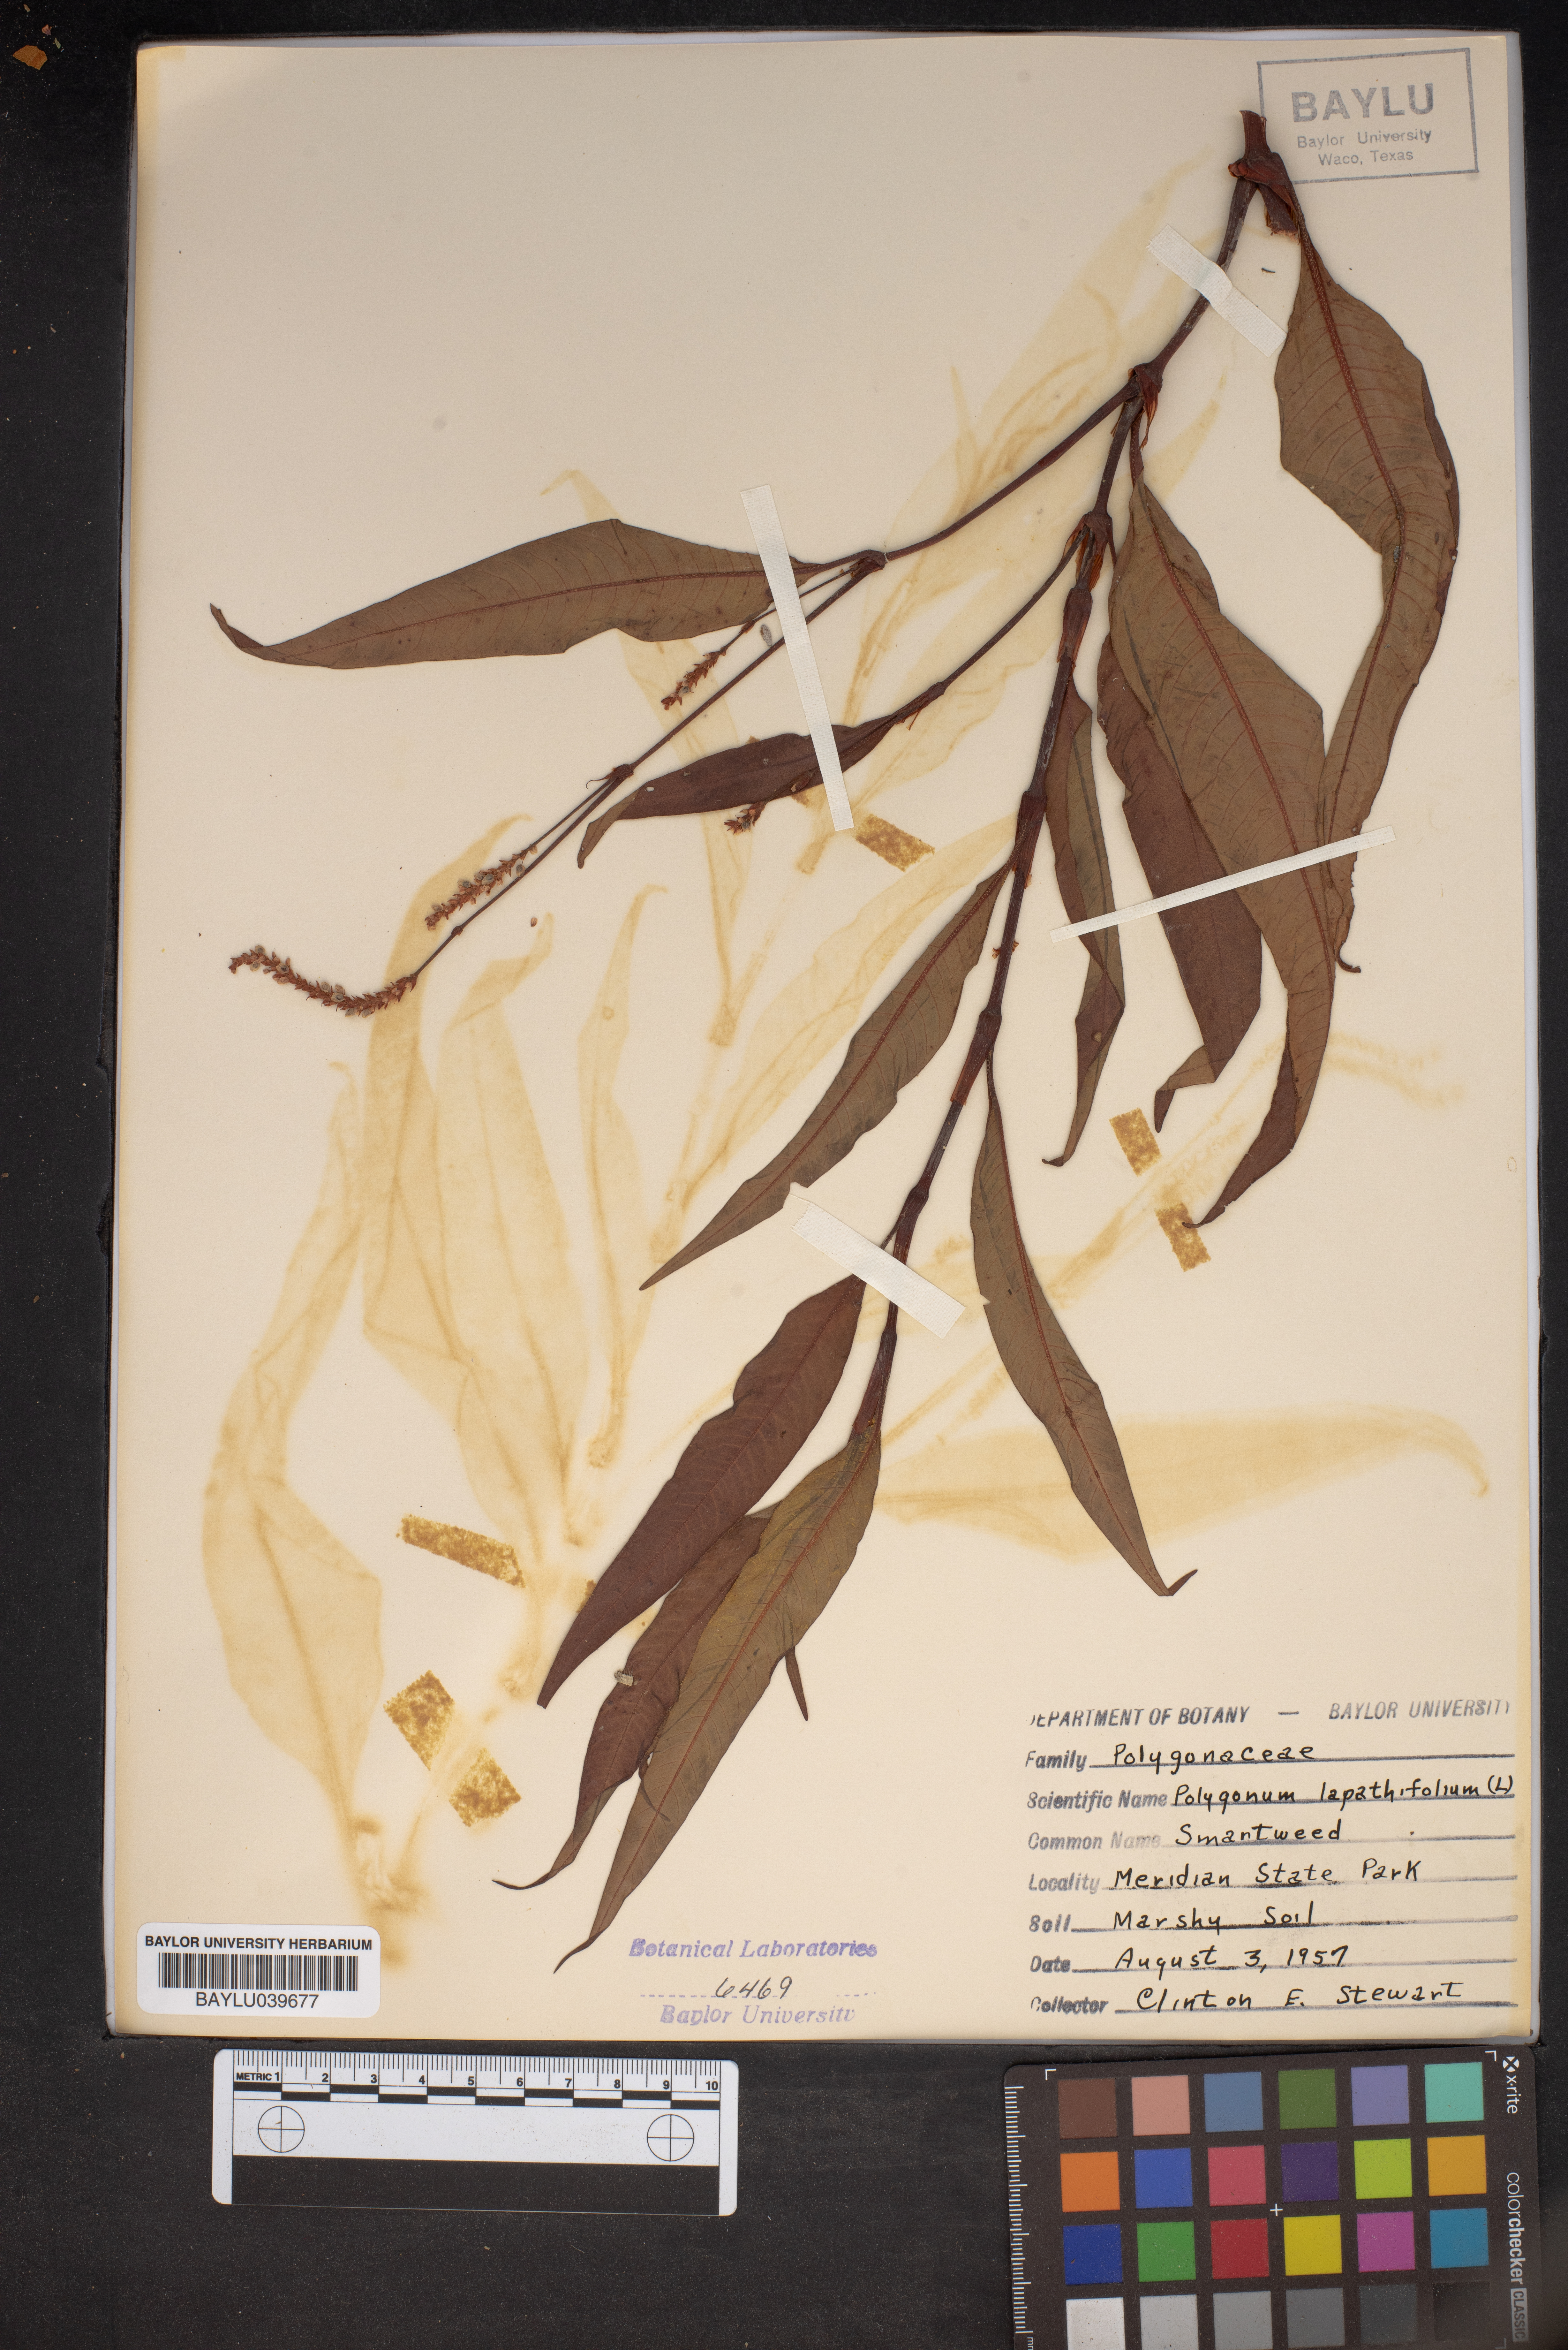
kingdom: Plantae
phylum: Tracheophyta
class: Magnoliopsida
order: Caryophyllales
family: Polygonaceae
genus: Persicaria
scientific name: Persicaria lapathifolia
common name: Curlytop knotweed
